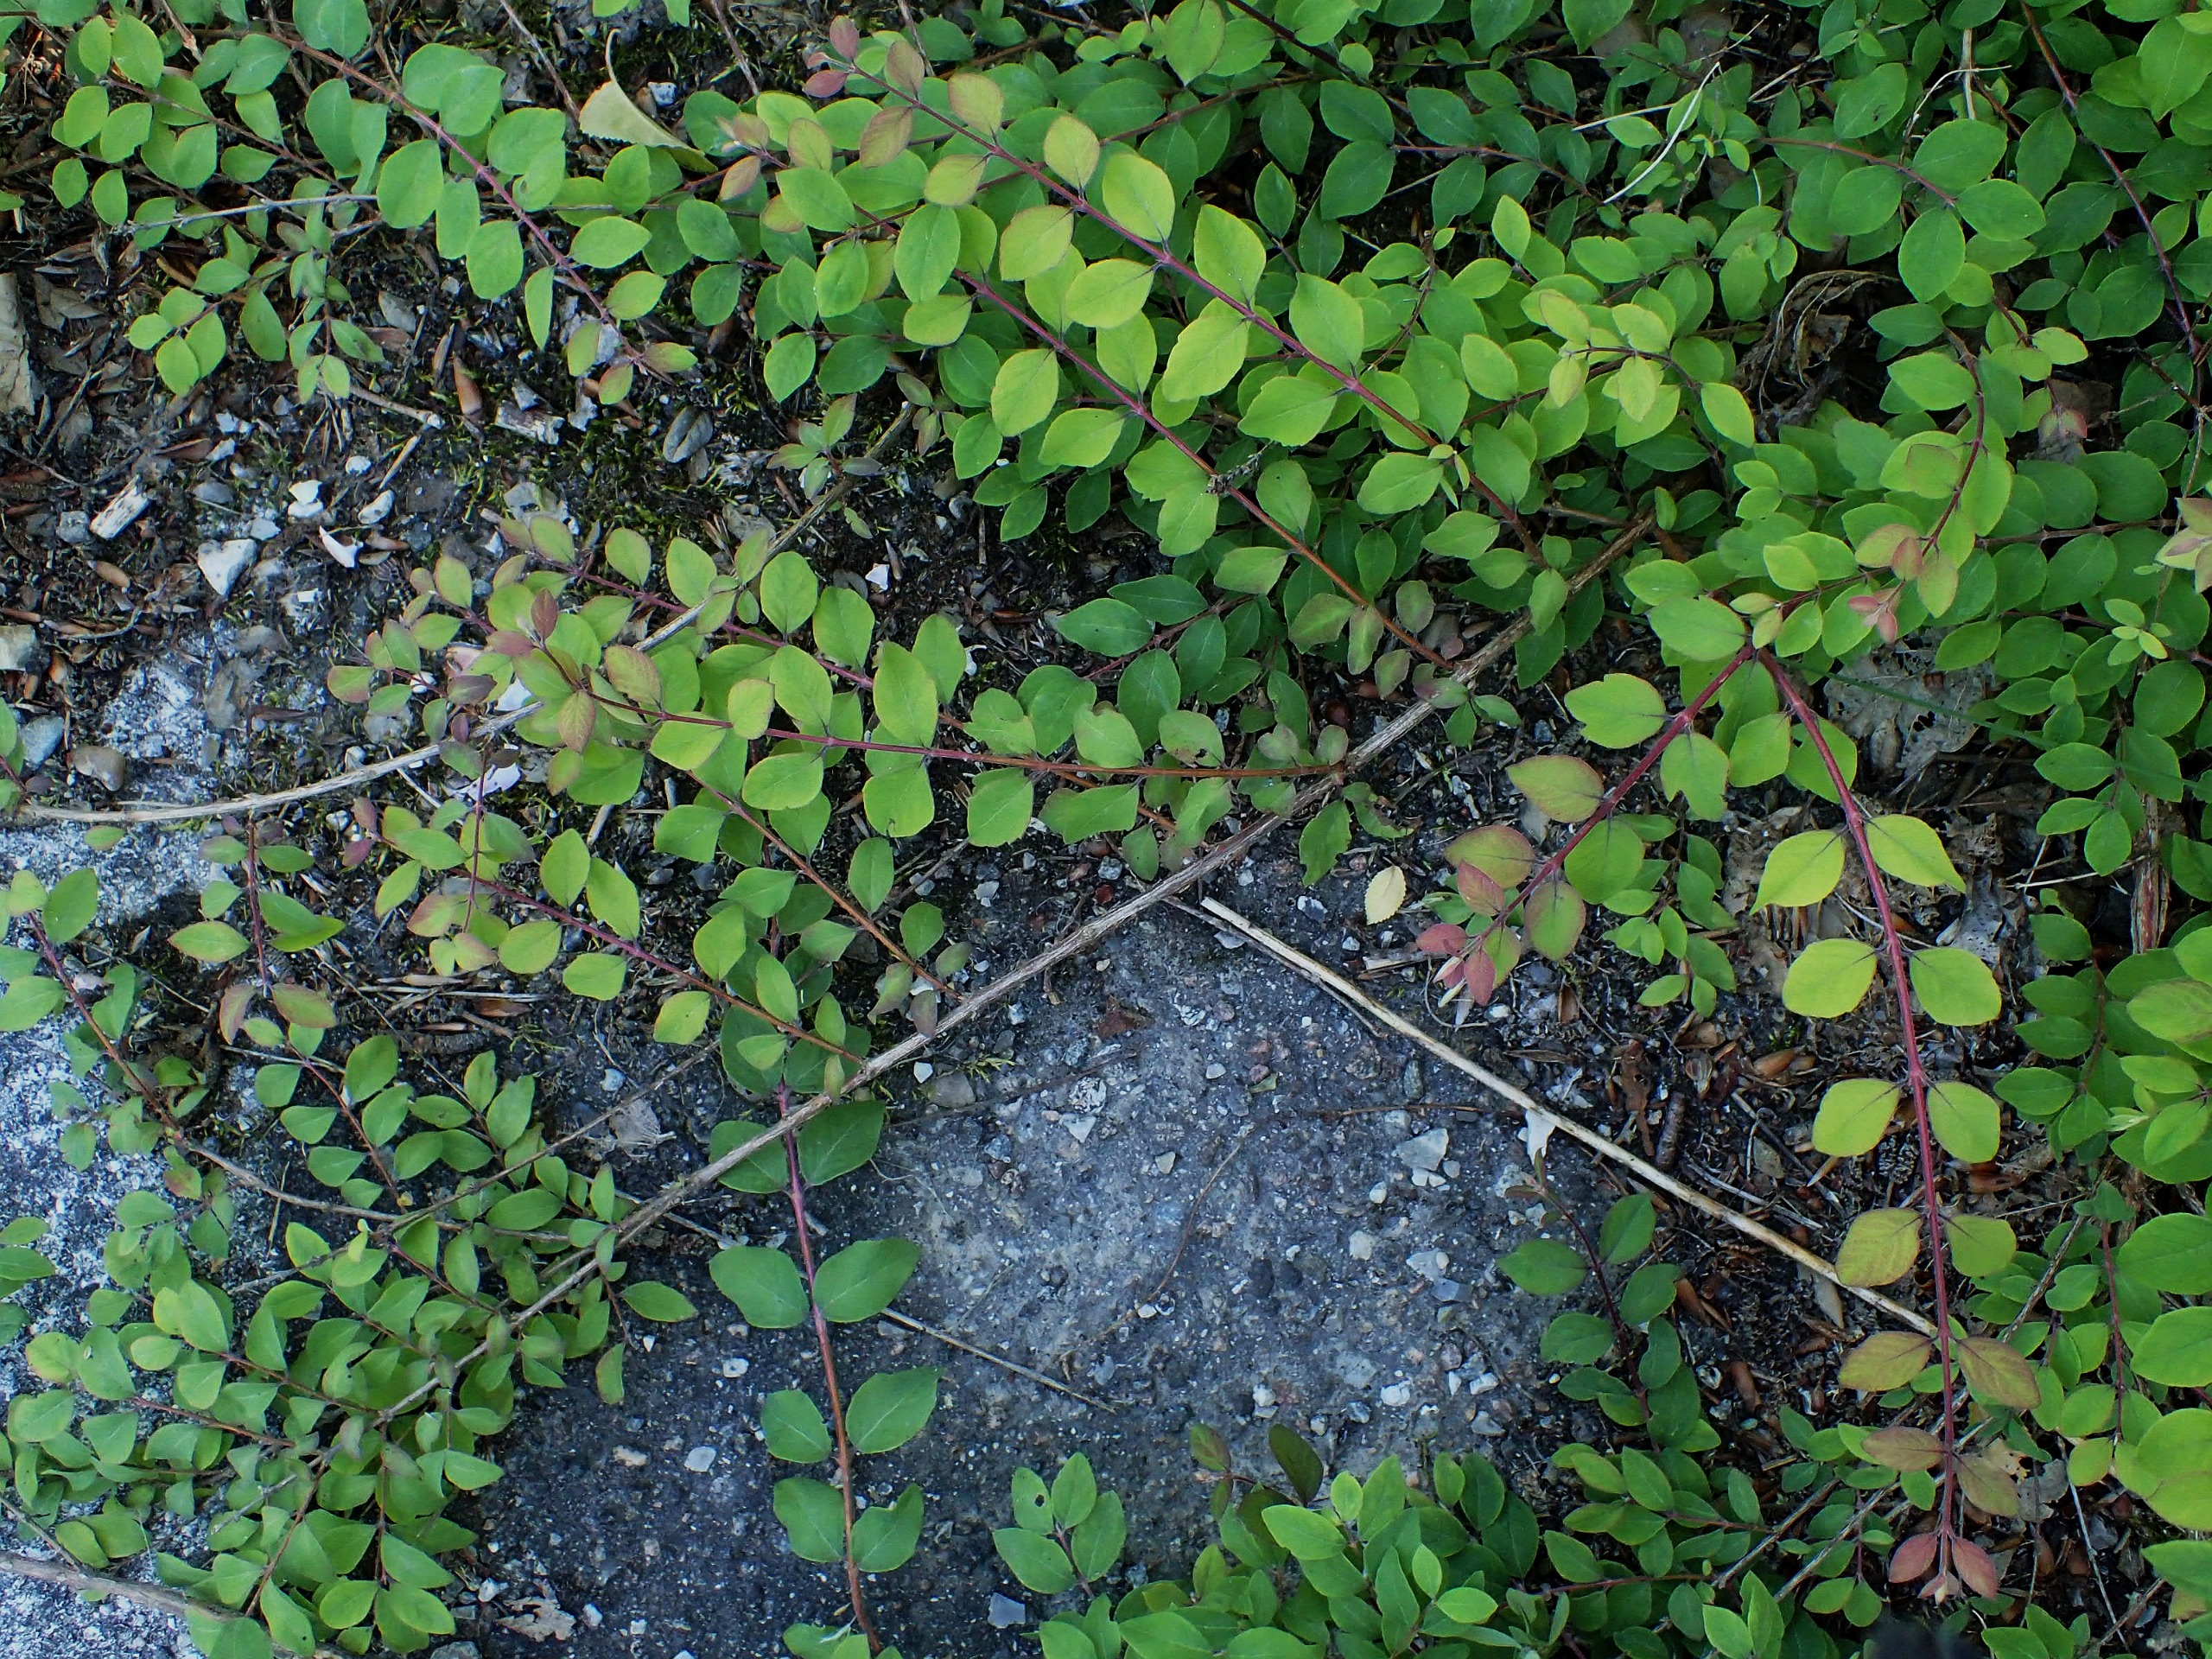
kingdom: Plantae
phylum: Tracheophyta
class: Magnoliopsida
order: Dipsacales
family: Caprifoliaceae
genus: Symphoricarpos
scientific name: Symphoricarpos chenaultii
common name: Rød snebær
